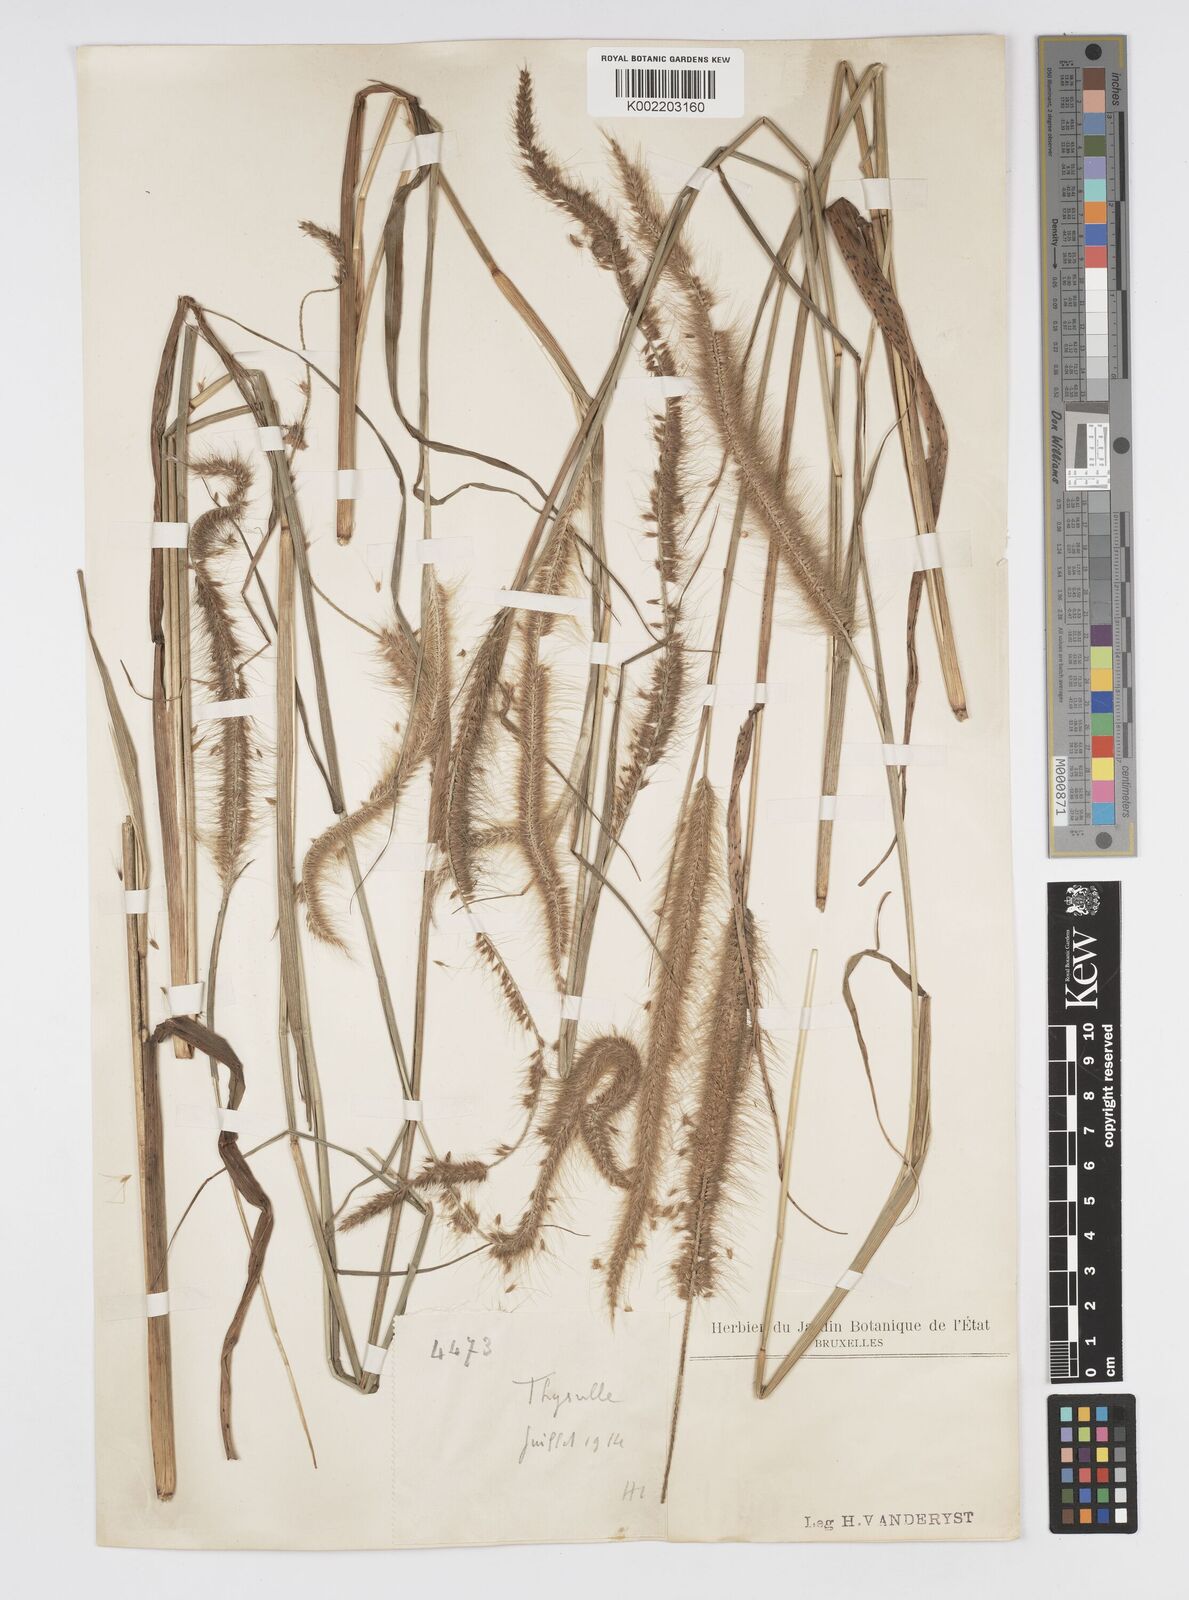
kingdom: Plantae
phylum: Tracheophyta
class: Liliopsida
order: Poales
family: Poaceae
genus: Cenchrus
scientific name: Cenchrus setosus
